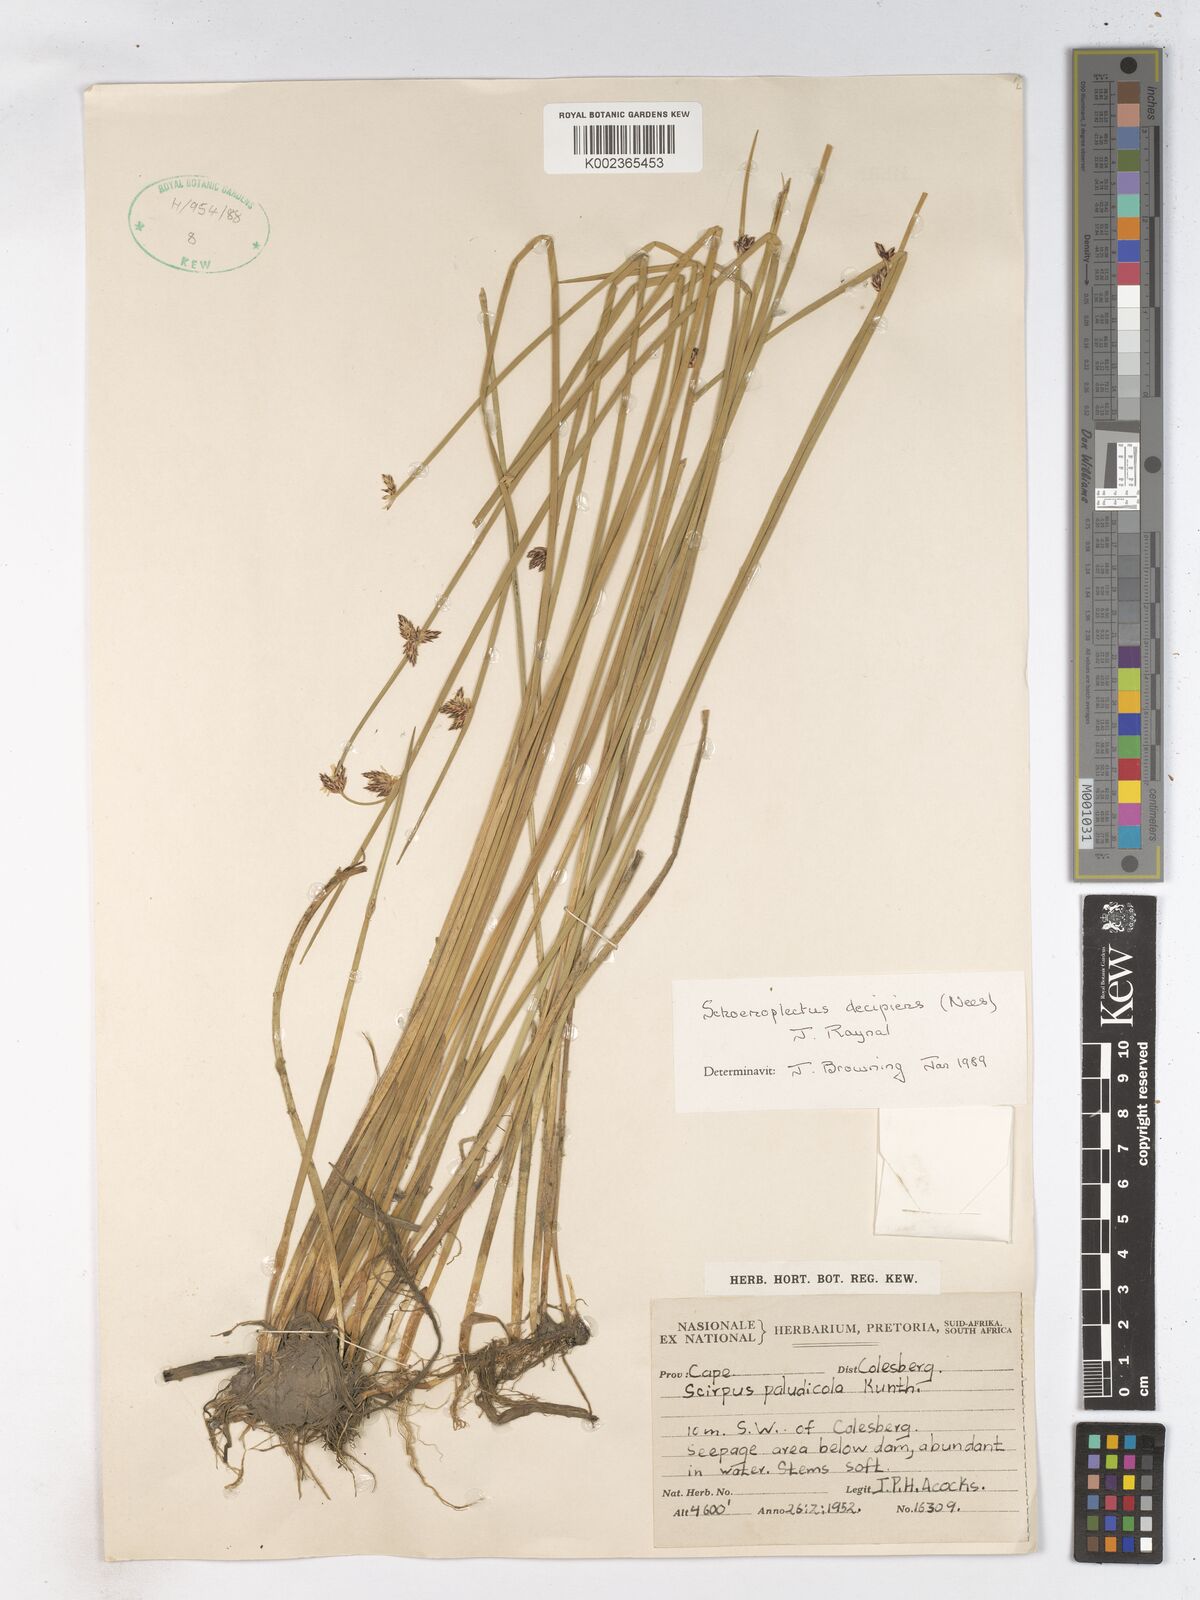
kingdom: Plantae
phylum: Tracheophyta
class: Liliopsida
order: Poales
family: Cyperaceae
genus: Schoenoplectiella
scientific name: Schoenoplectiella paludicola
